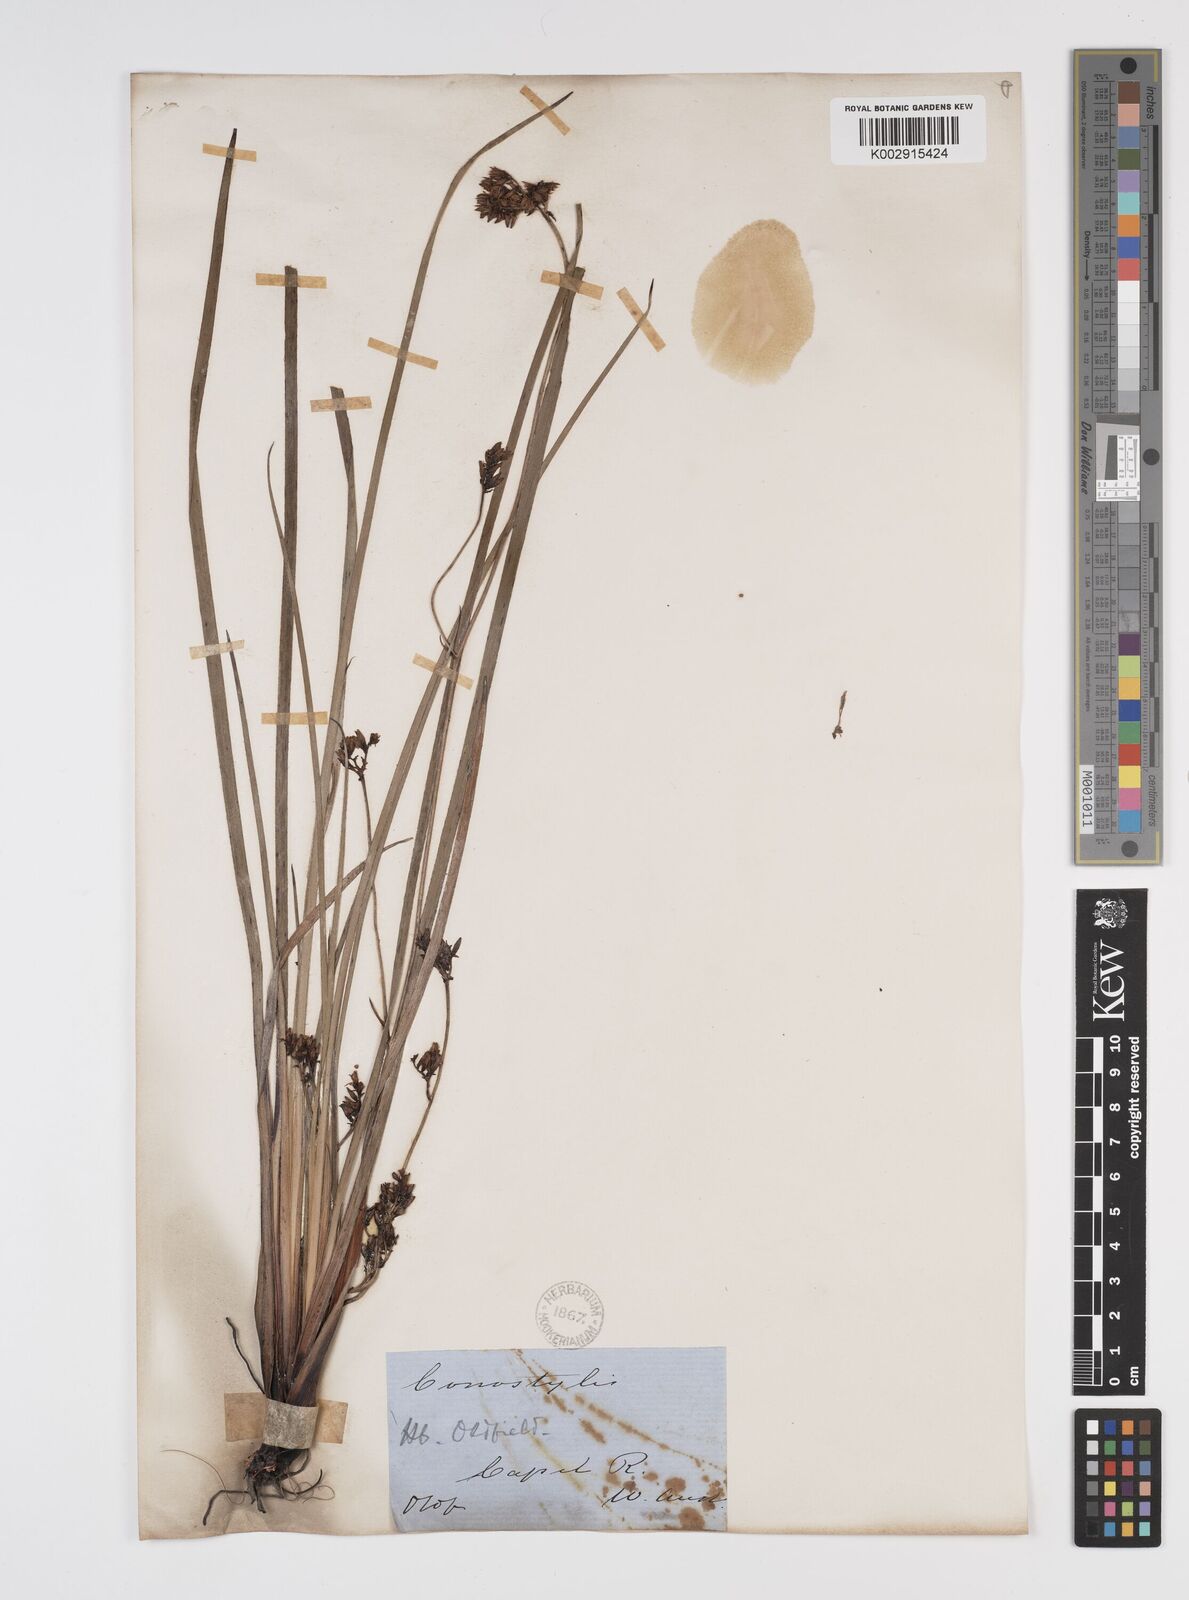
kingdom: Plantae
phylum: Tracheophyta
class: Liliopsida
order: Commelinales
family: Haemodoraceae
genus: Phlebocarya
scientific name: Phlebocarya ciliata
